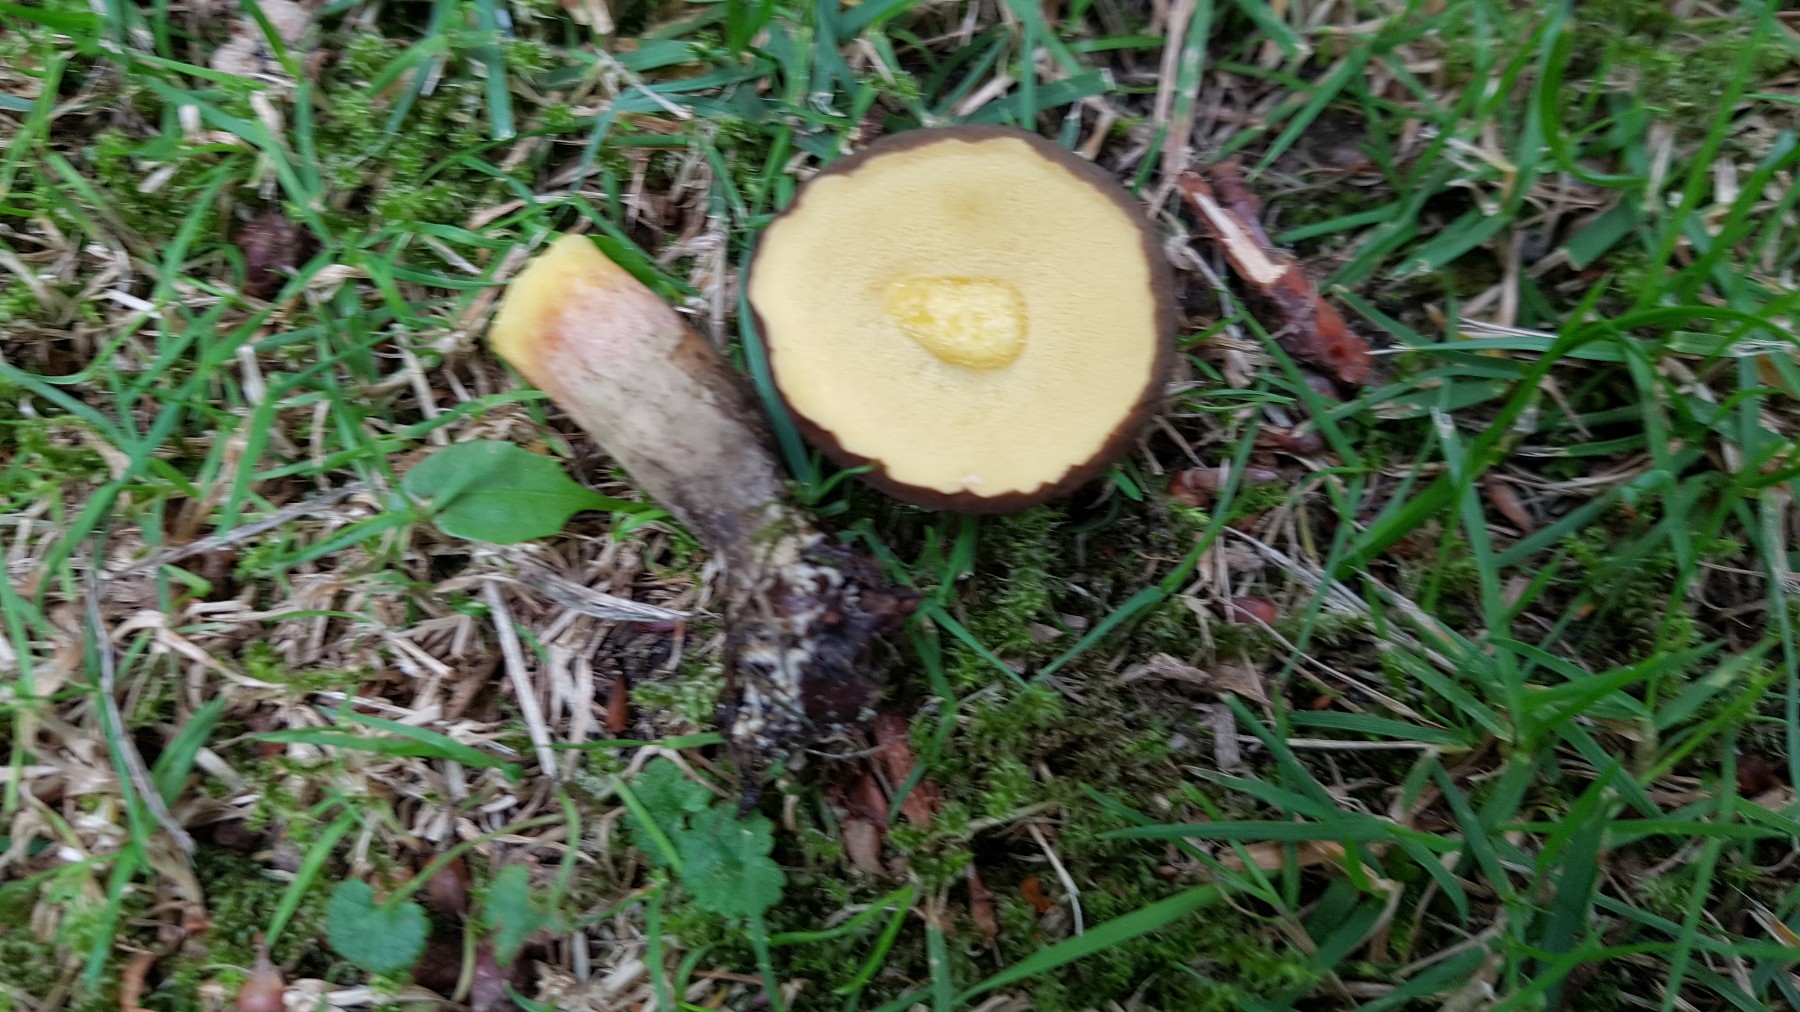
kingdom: Fungi
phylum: Basidiomycota
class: Agaricomycetes
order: Boletales
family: Boletaceae
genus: Xerocomellus
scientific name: Xerocomellus porosporus
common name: hvidsprukken rørhat
